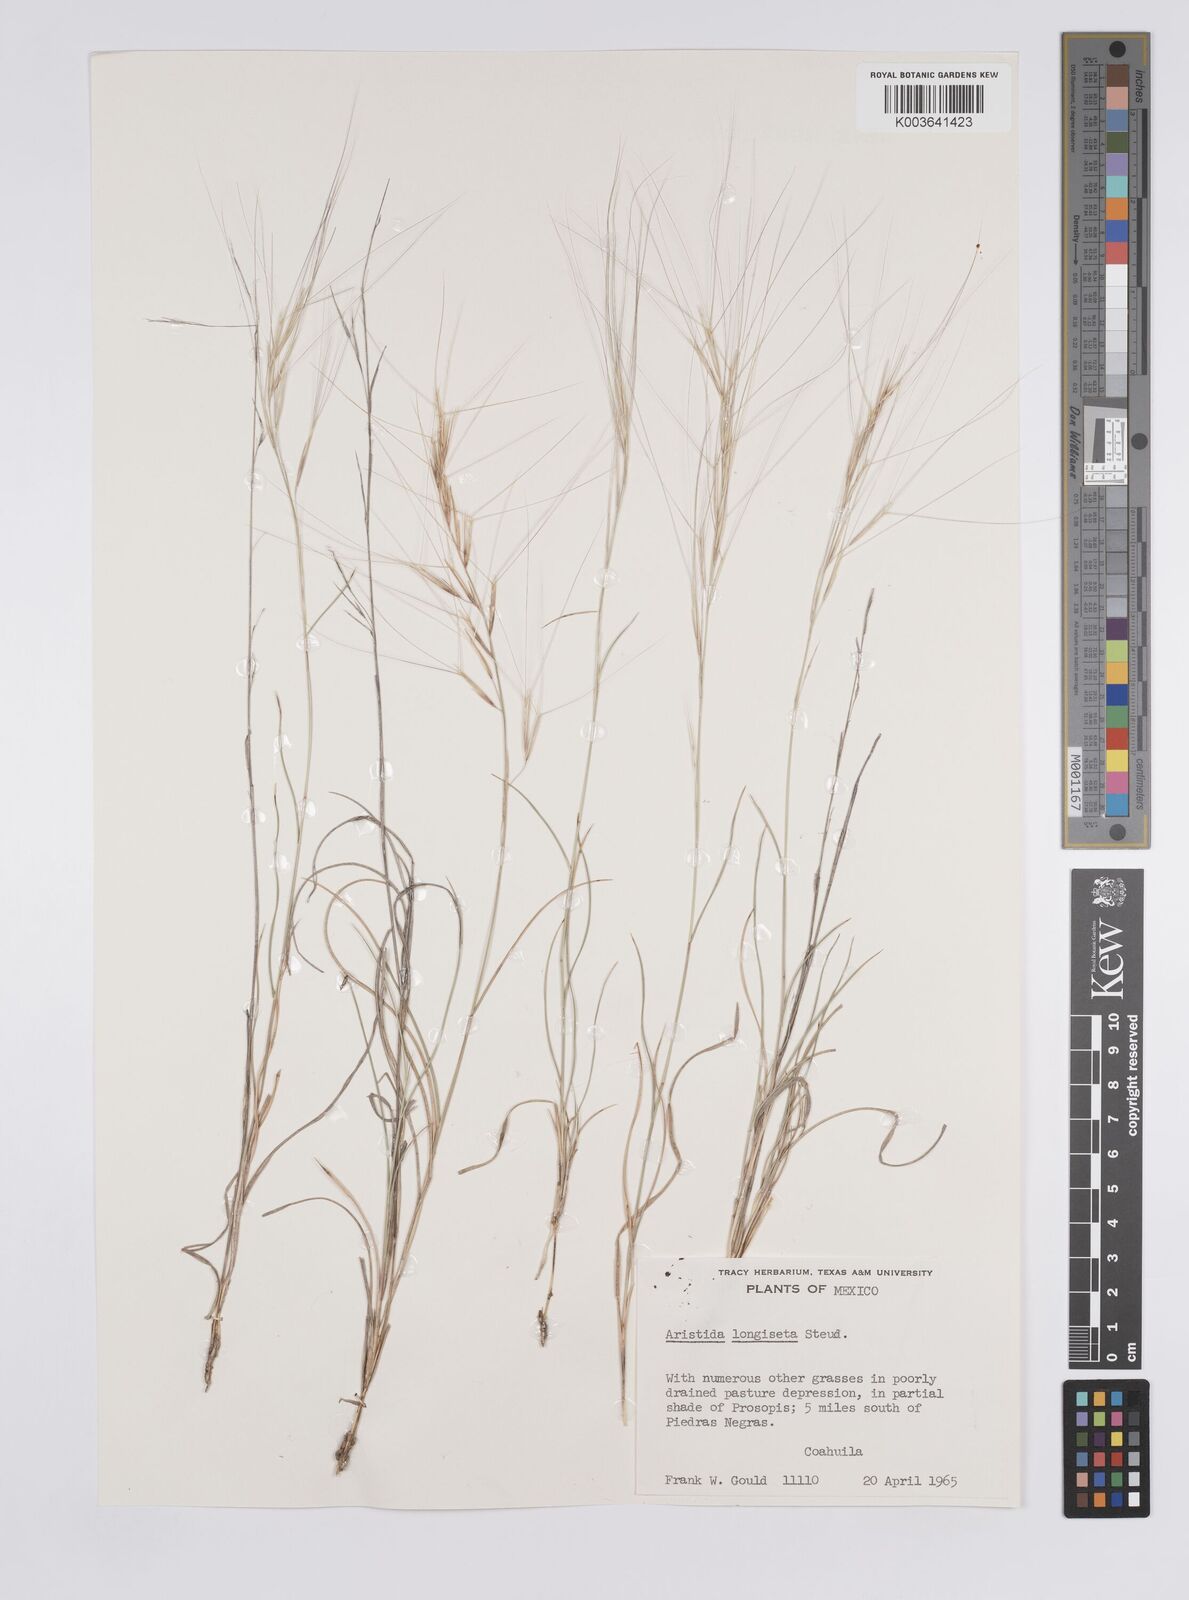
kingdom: Plantae
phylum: Tracheophyta
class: Liliopsida
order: Poales
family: Poaceae
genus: Aristida
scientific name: Aristida purpurea
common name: Purple threeawn
